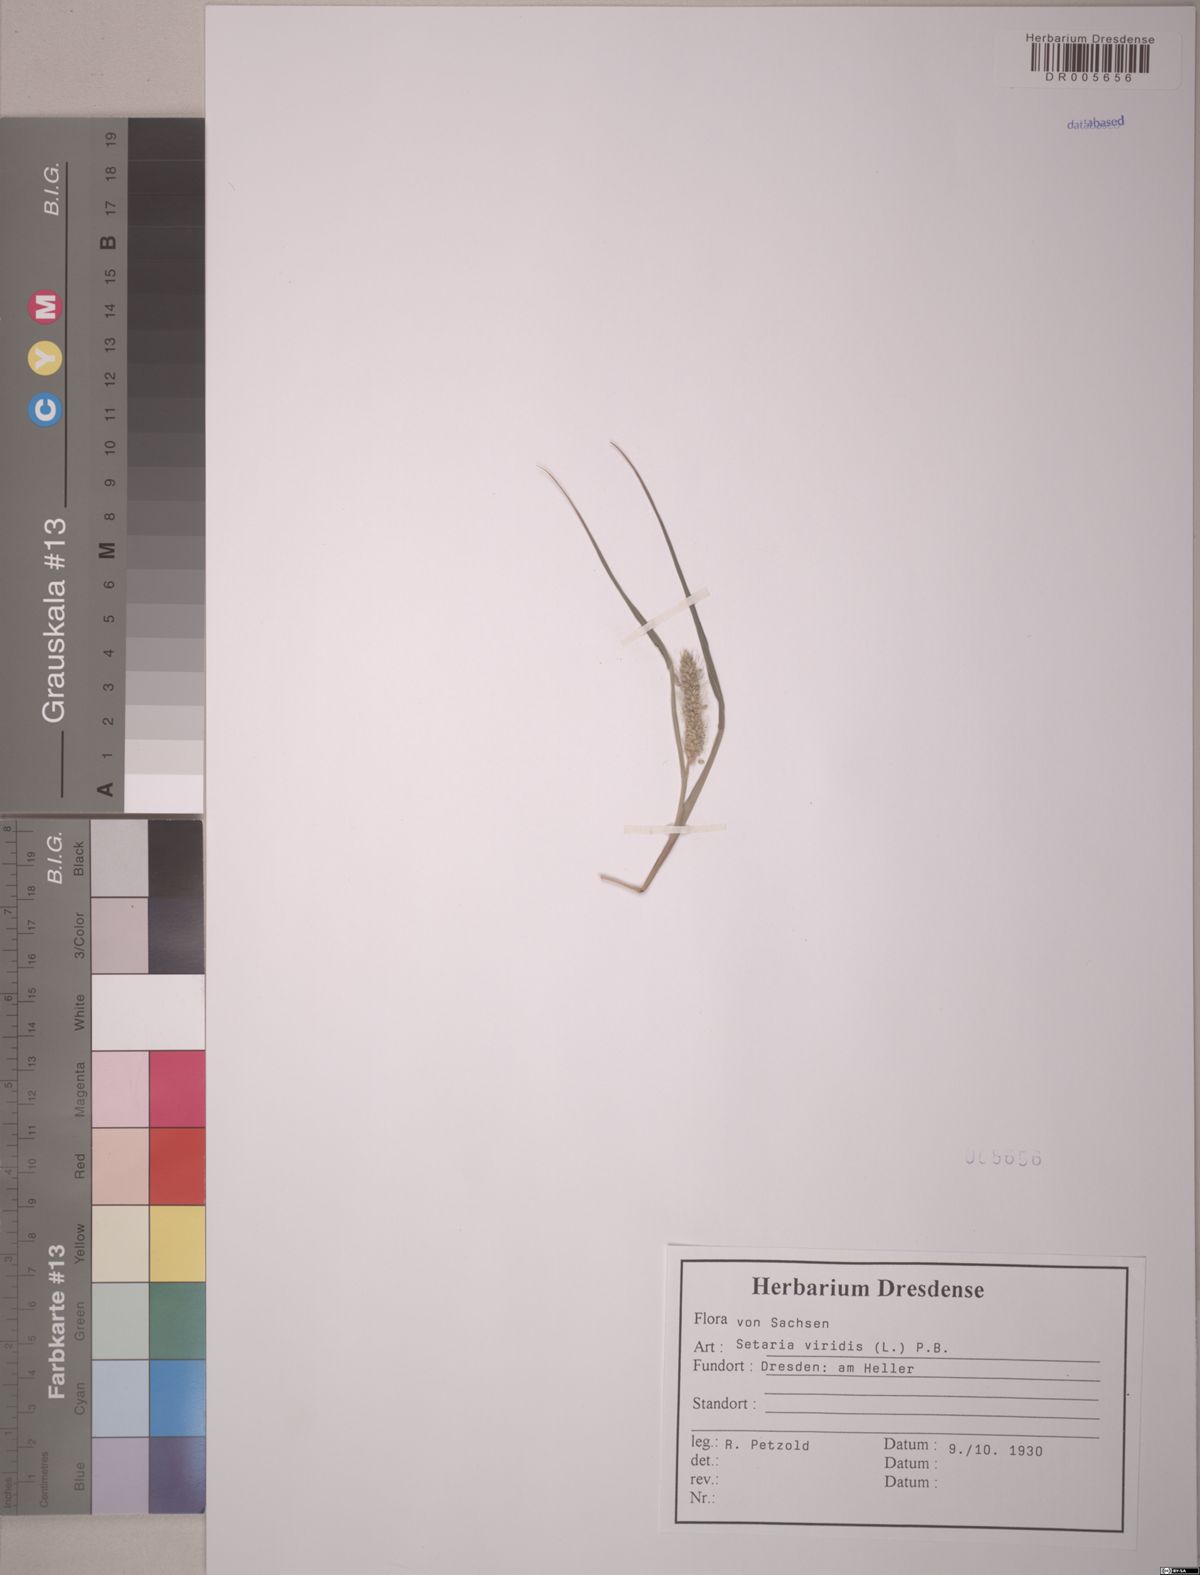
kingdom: Plantae
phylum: Tracheophyta
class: Liliopsida
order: Poales
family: Poaceae
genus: Setaria
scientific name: Setaria viridis
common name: Green bristlegrass
